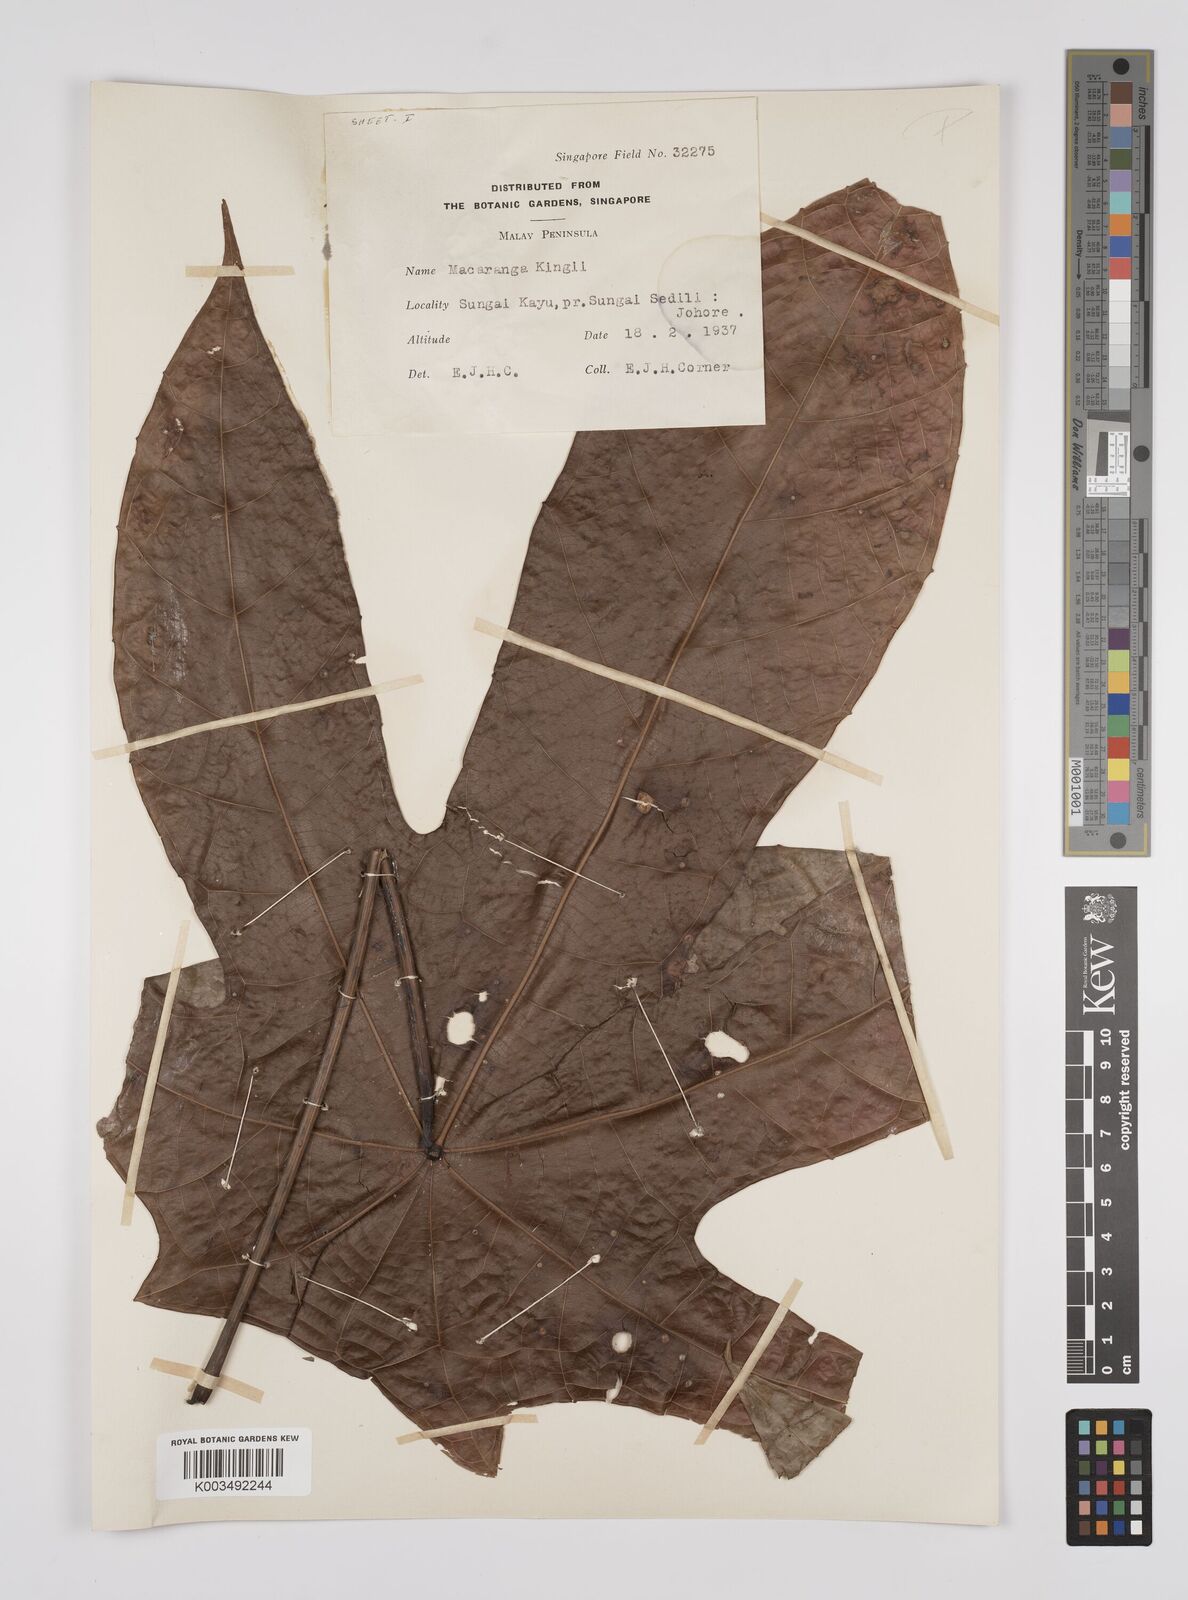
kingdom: Plantae
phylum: Tracheophyta
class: Magnoliopsida
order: Malpighiales
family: Euphorbiaceae
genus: Macaranga
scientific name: Macaranga kingii
